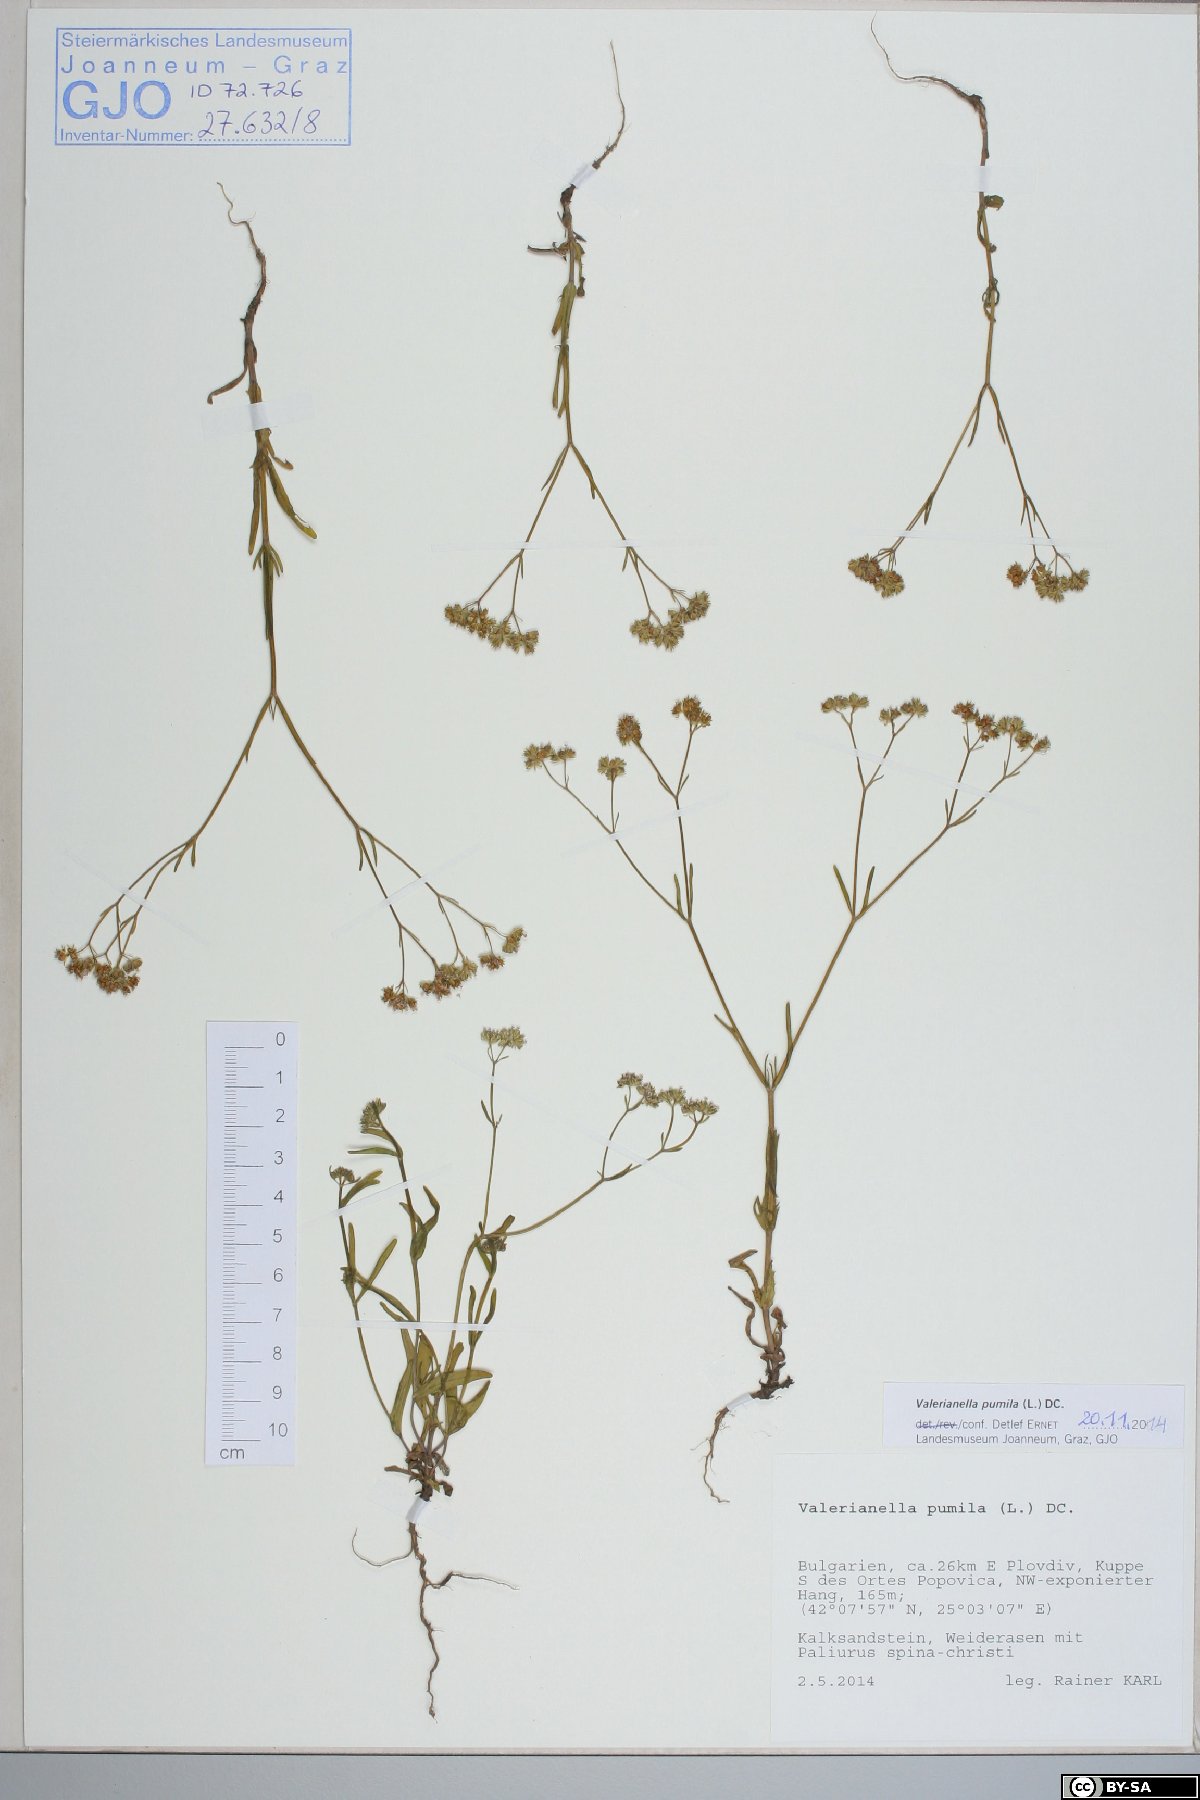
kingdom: Plantae
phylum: Tracheophyta
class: Magnoliopsida
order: Dipsacales
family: Caprifoliaceae
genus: Valerianella
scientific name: Valerianella pumila
